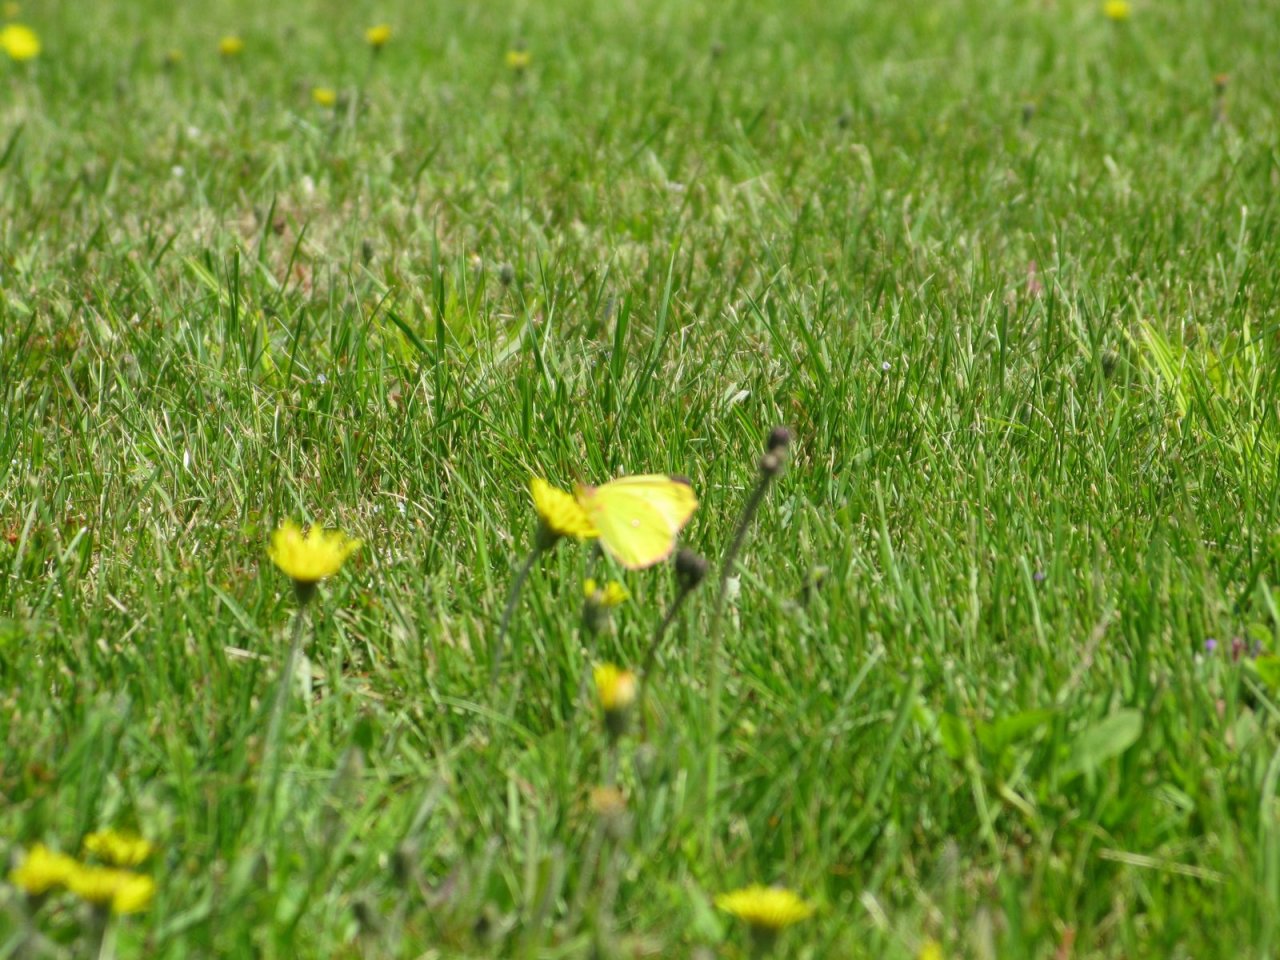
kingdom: Animalia
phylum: Arthropoda
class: Insecta
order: Lepidoptera
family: Pieridae
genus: Colias
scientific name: Colias interior
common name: Pink-edged Sulphur
